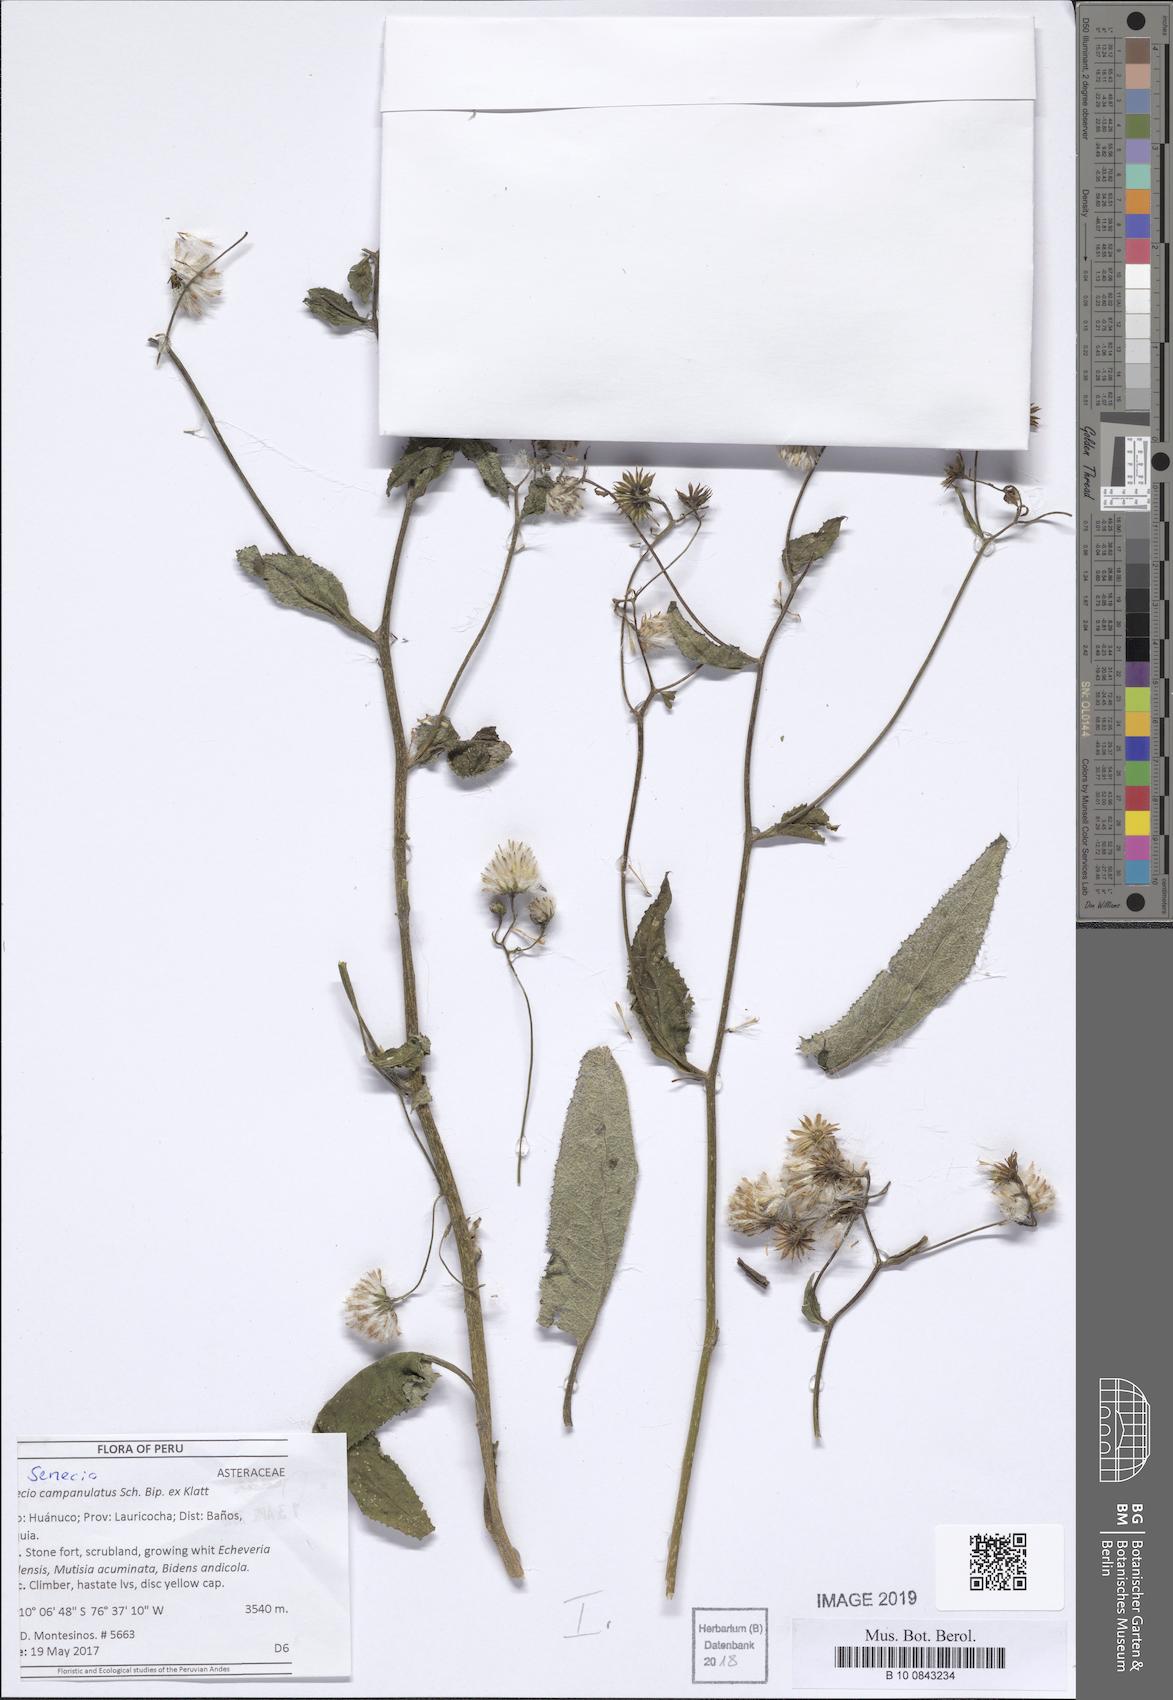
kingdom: Plantae
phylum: Tracheophyta
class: Magnoliopsida
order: Asterales
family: Asteraceae
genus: Aetheolaena
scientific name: Aetheolaena betonicifolia
